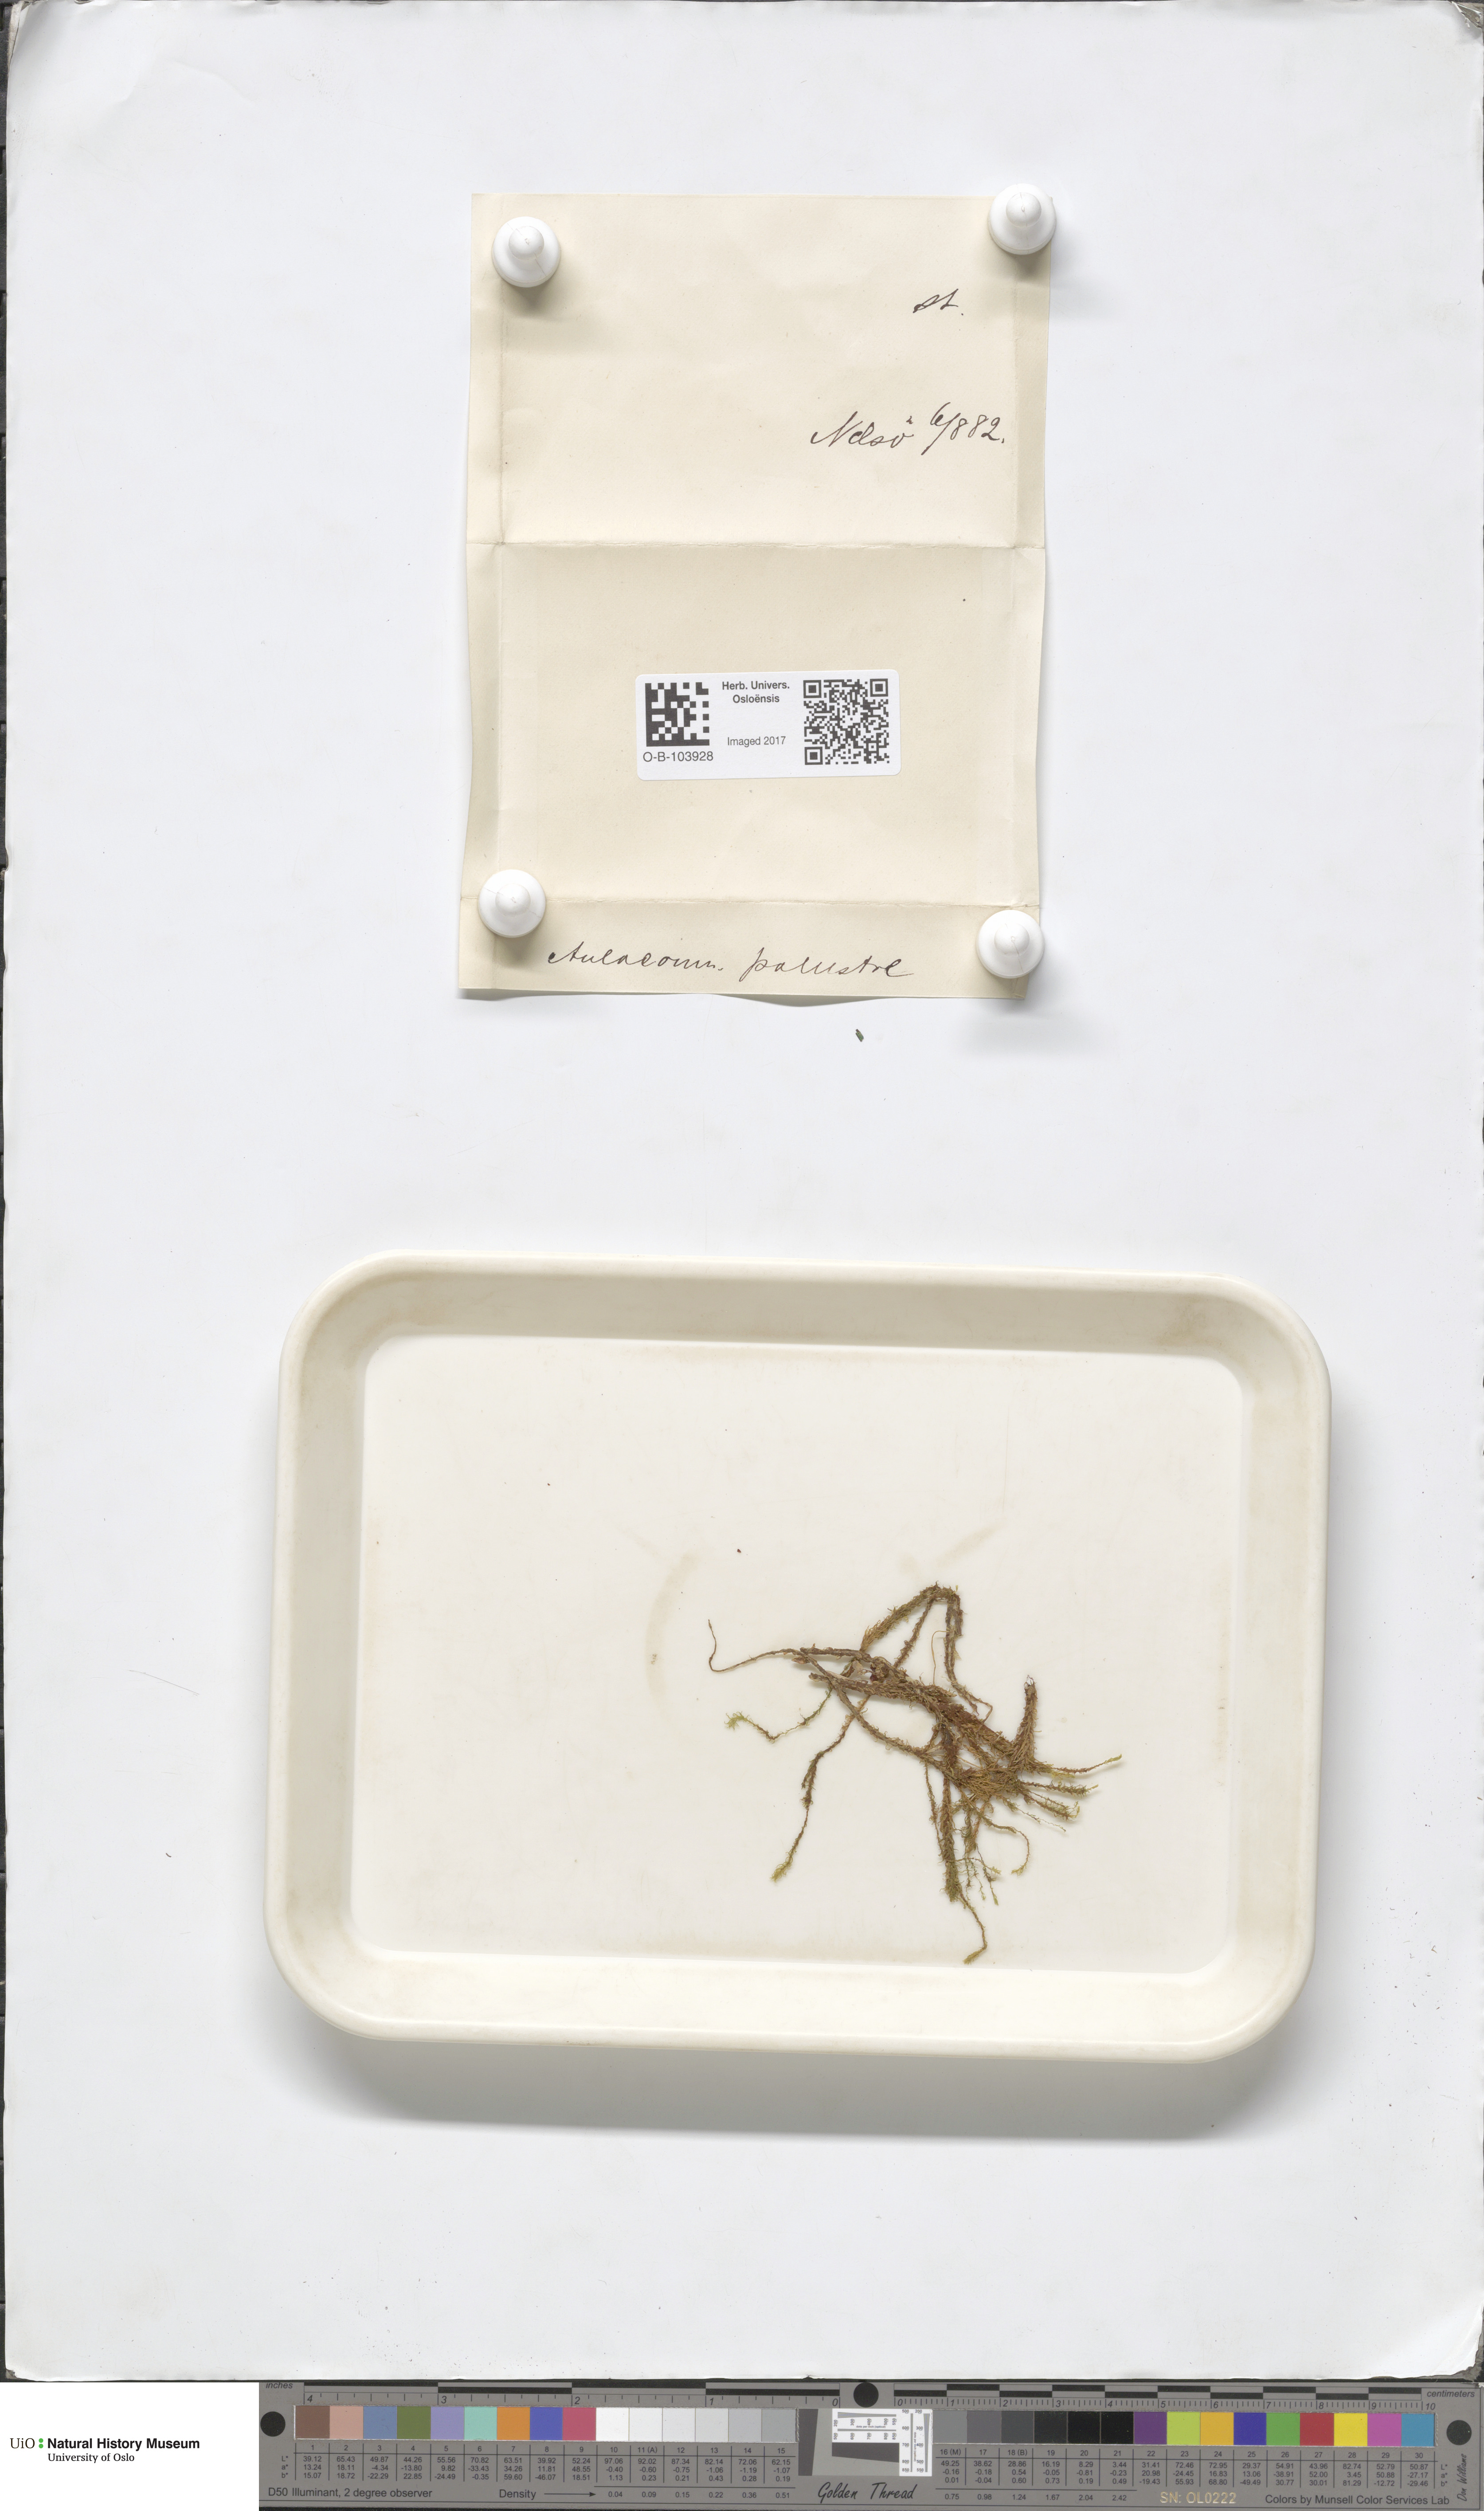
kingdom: Plantae
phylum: Bryophyta
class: Bryopsida
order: Aulacomniales
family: Aulacomniaceae
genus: Aulacomnium
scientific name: Aulacomnium palustre
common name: Bog groove-moss
